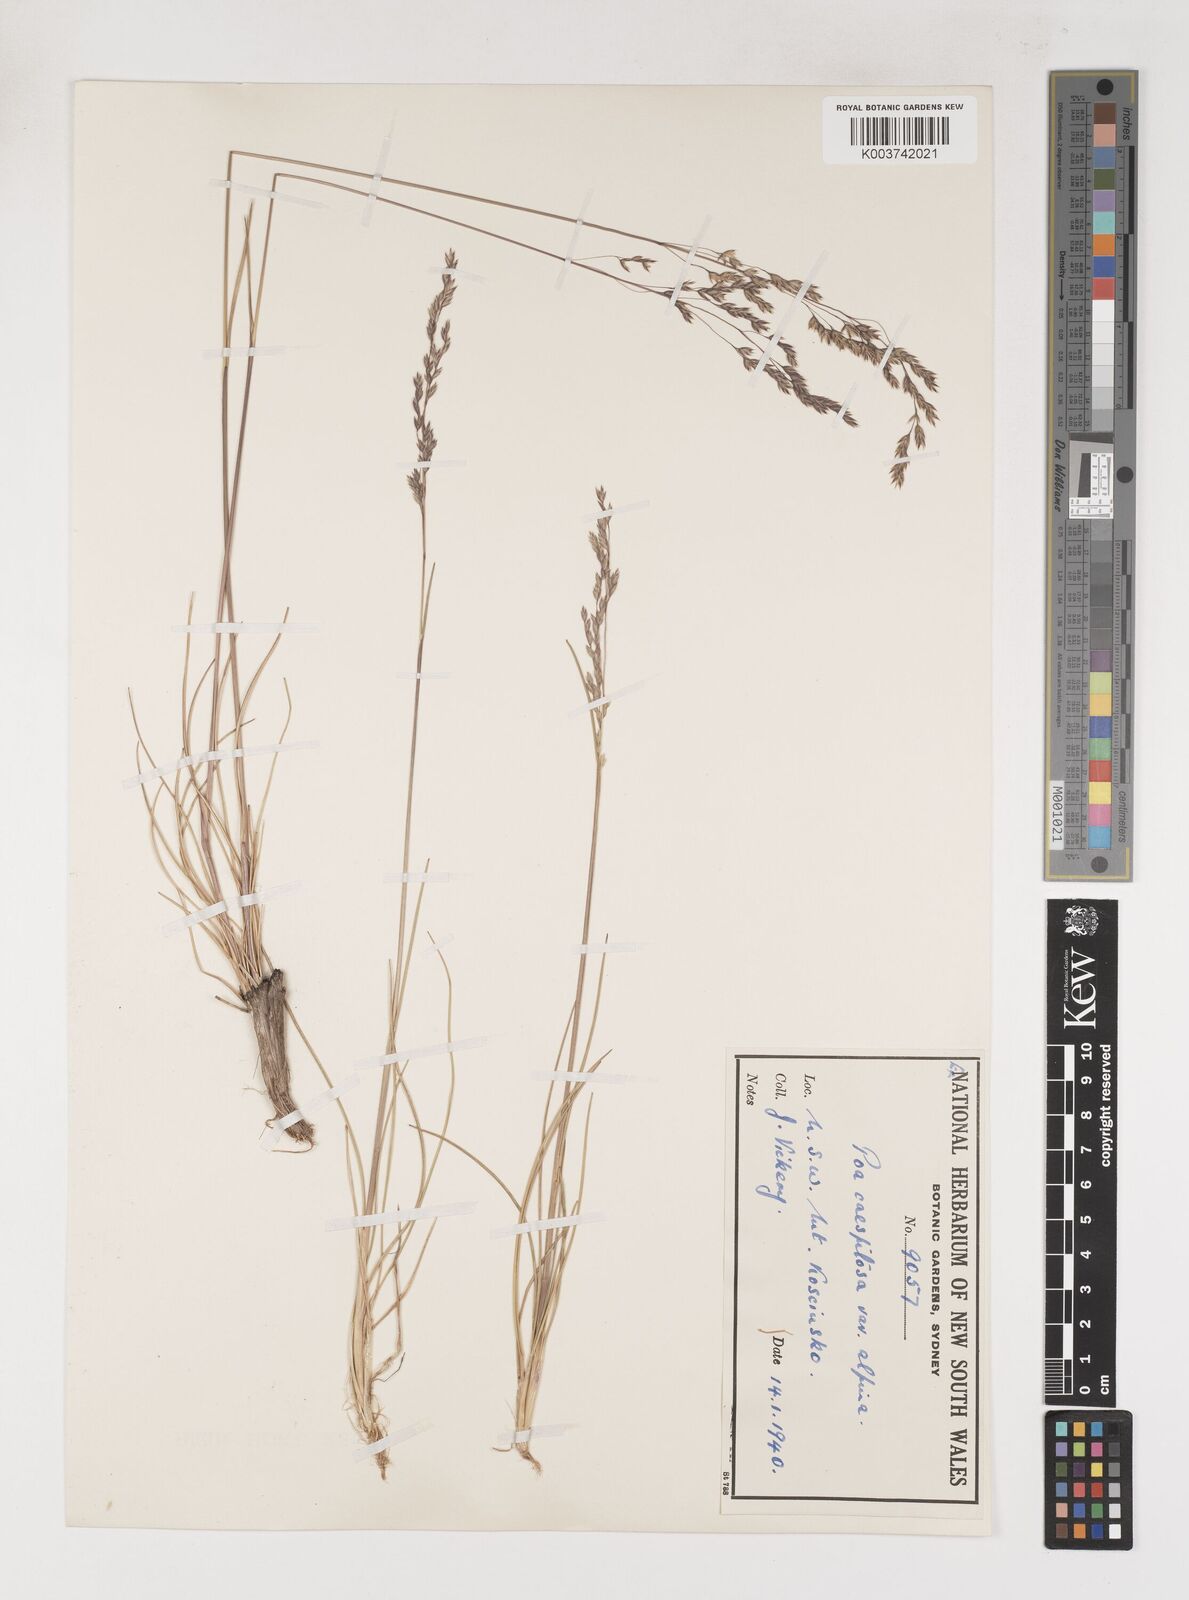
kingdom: Plantae
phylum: Tracheophyta
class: Liliopsida
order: Poales
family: Poaceae
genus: Poa
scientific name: Poa gunnii
